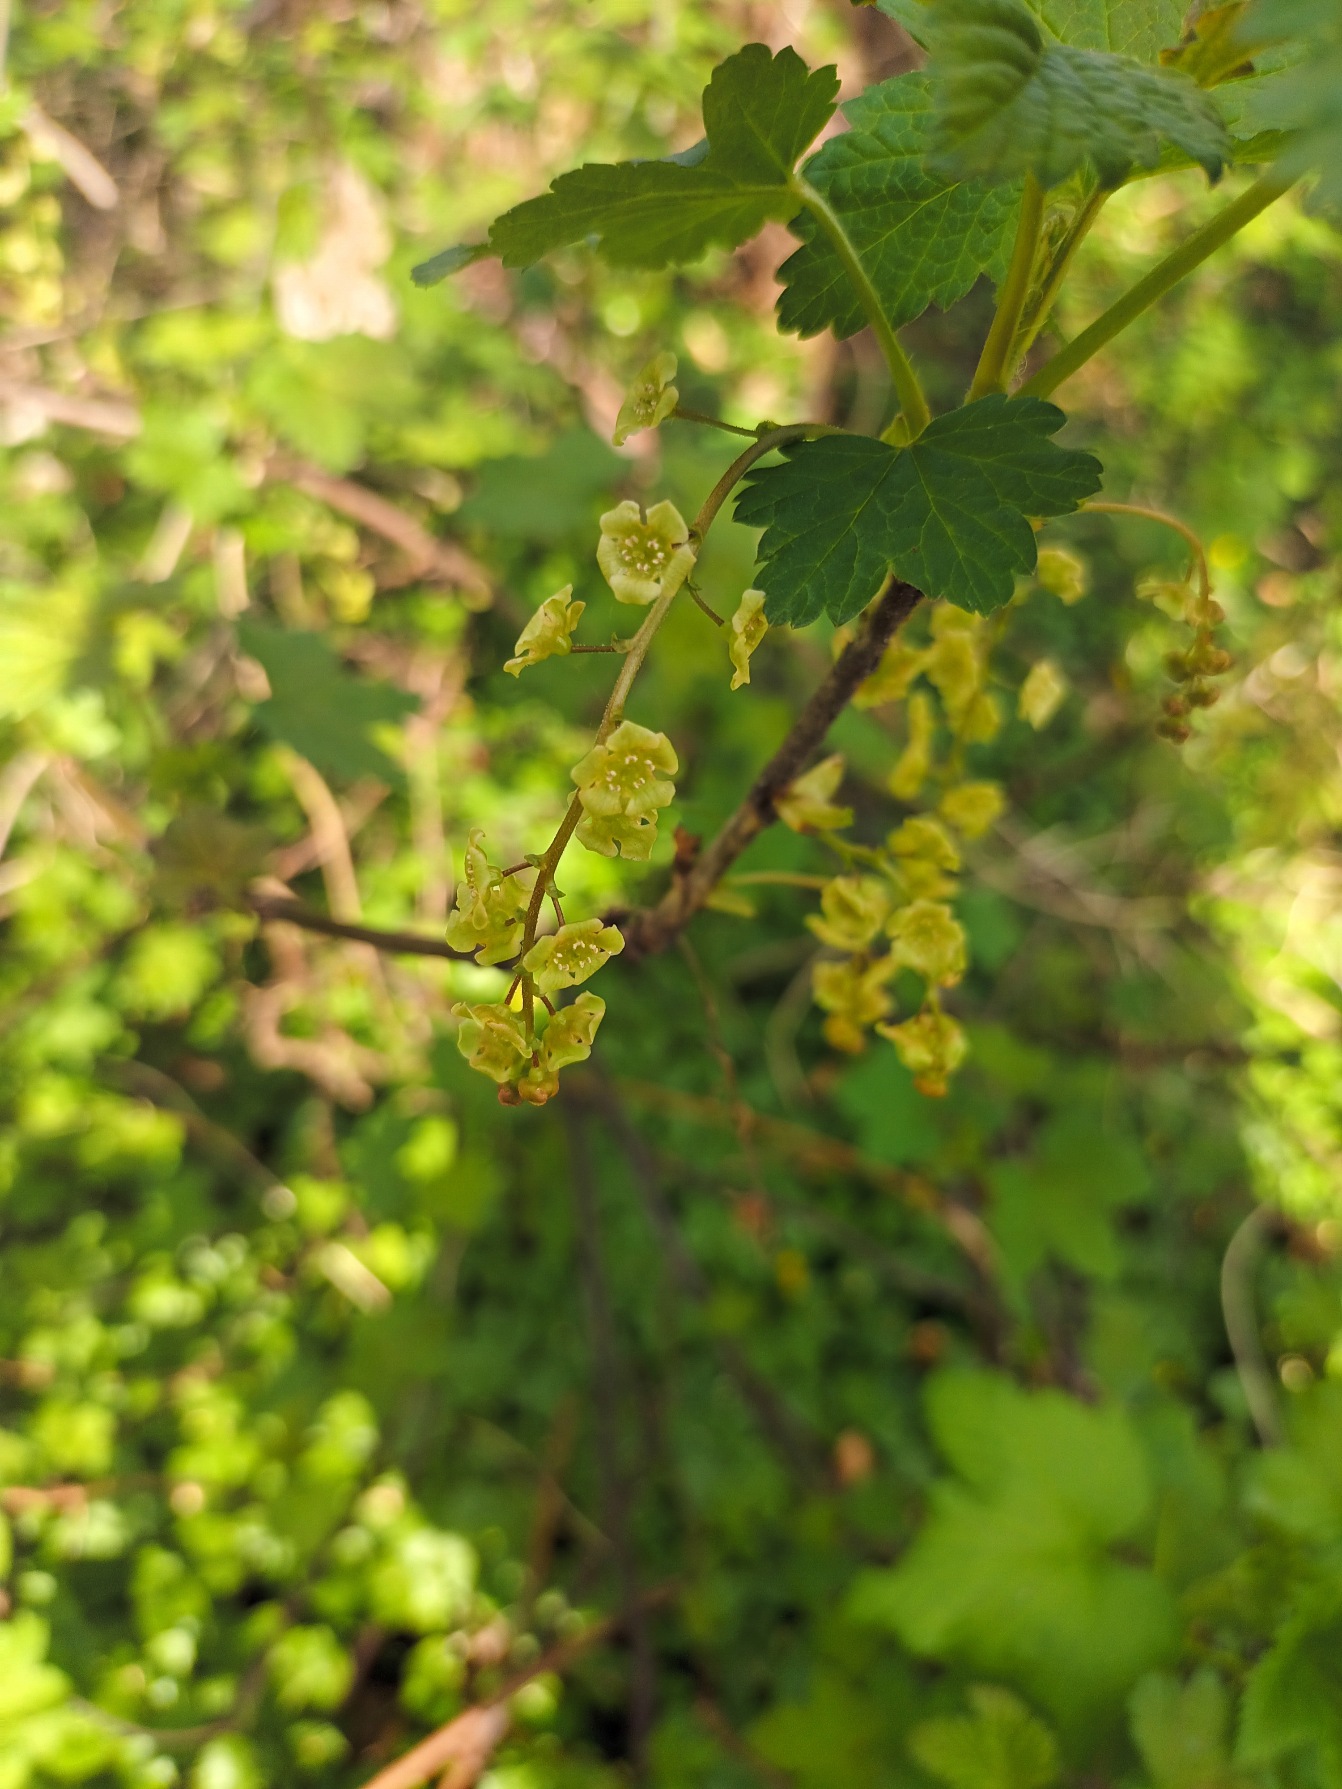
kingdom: Plantae
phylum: Tracheophyta
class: Magnoliopsida
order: Saxifragales
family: Grossulariaceae
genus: Ribes
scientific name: Ribes rubrum
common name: Have-ribs
